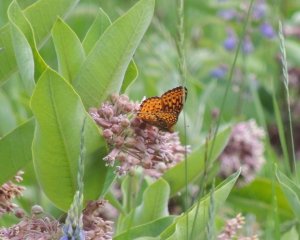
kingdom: Animalia
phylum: Arthropoda
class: Insecta
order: Lepidoptera
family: Nymphalidae
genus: Speyeria
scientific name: Speyeria atlantis
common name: Atlantis Fritillary
